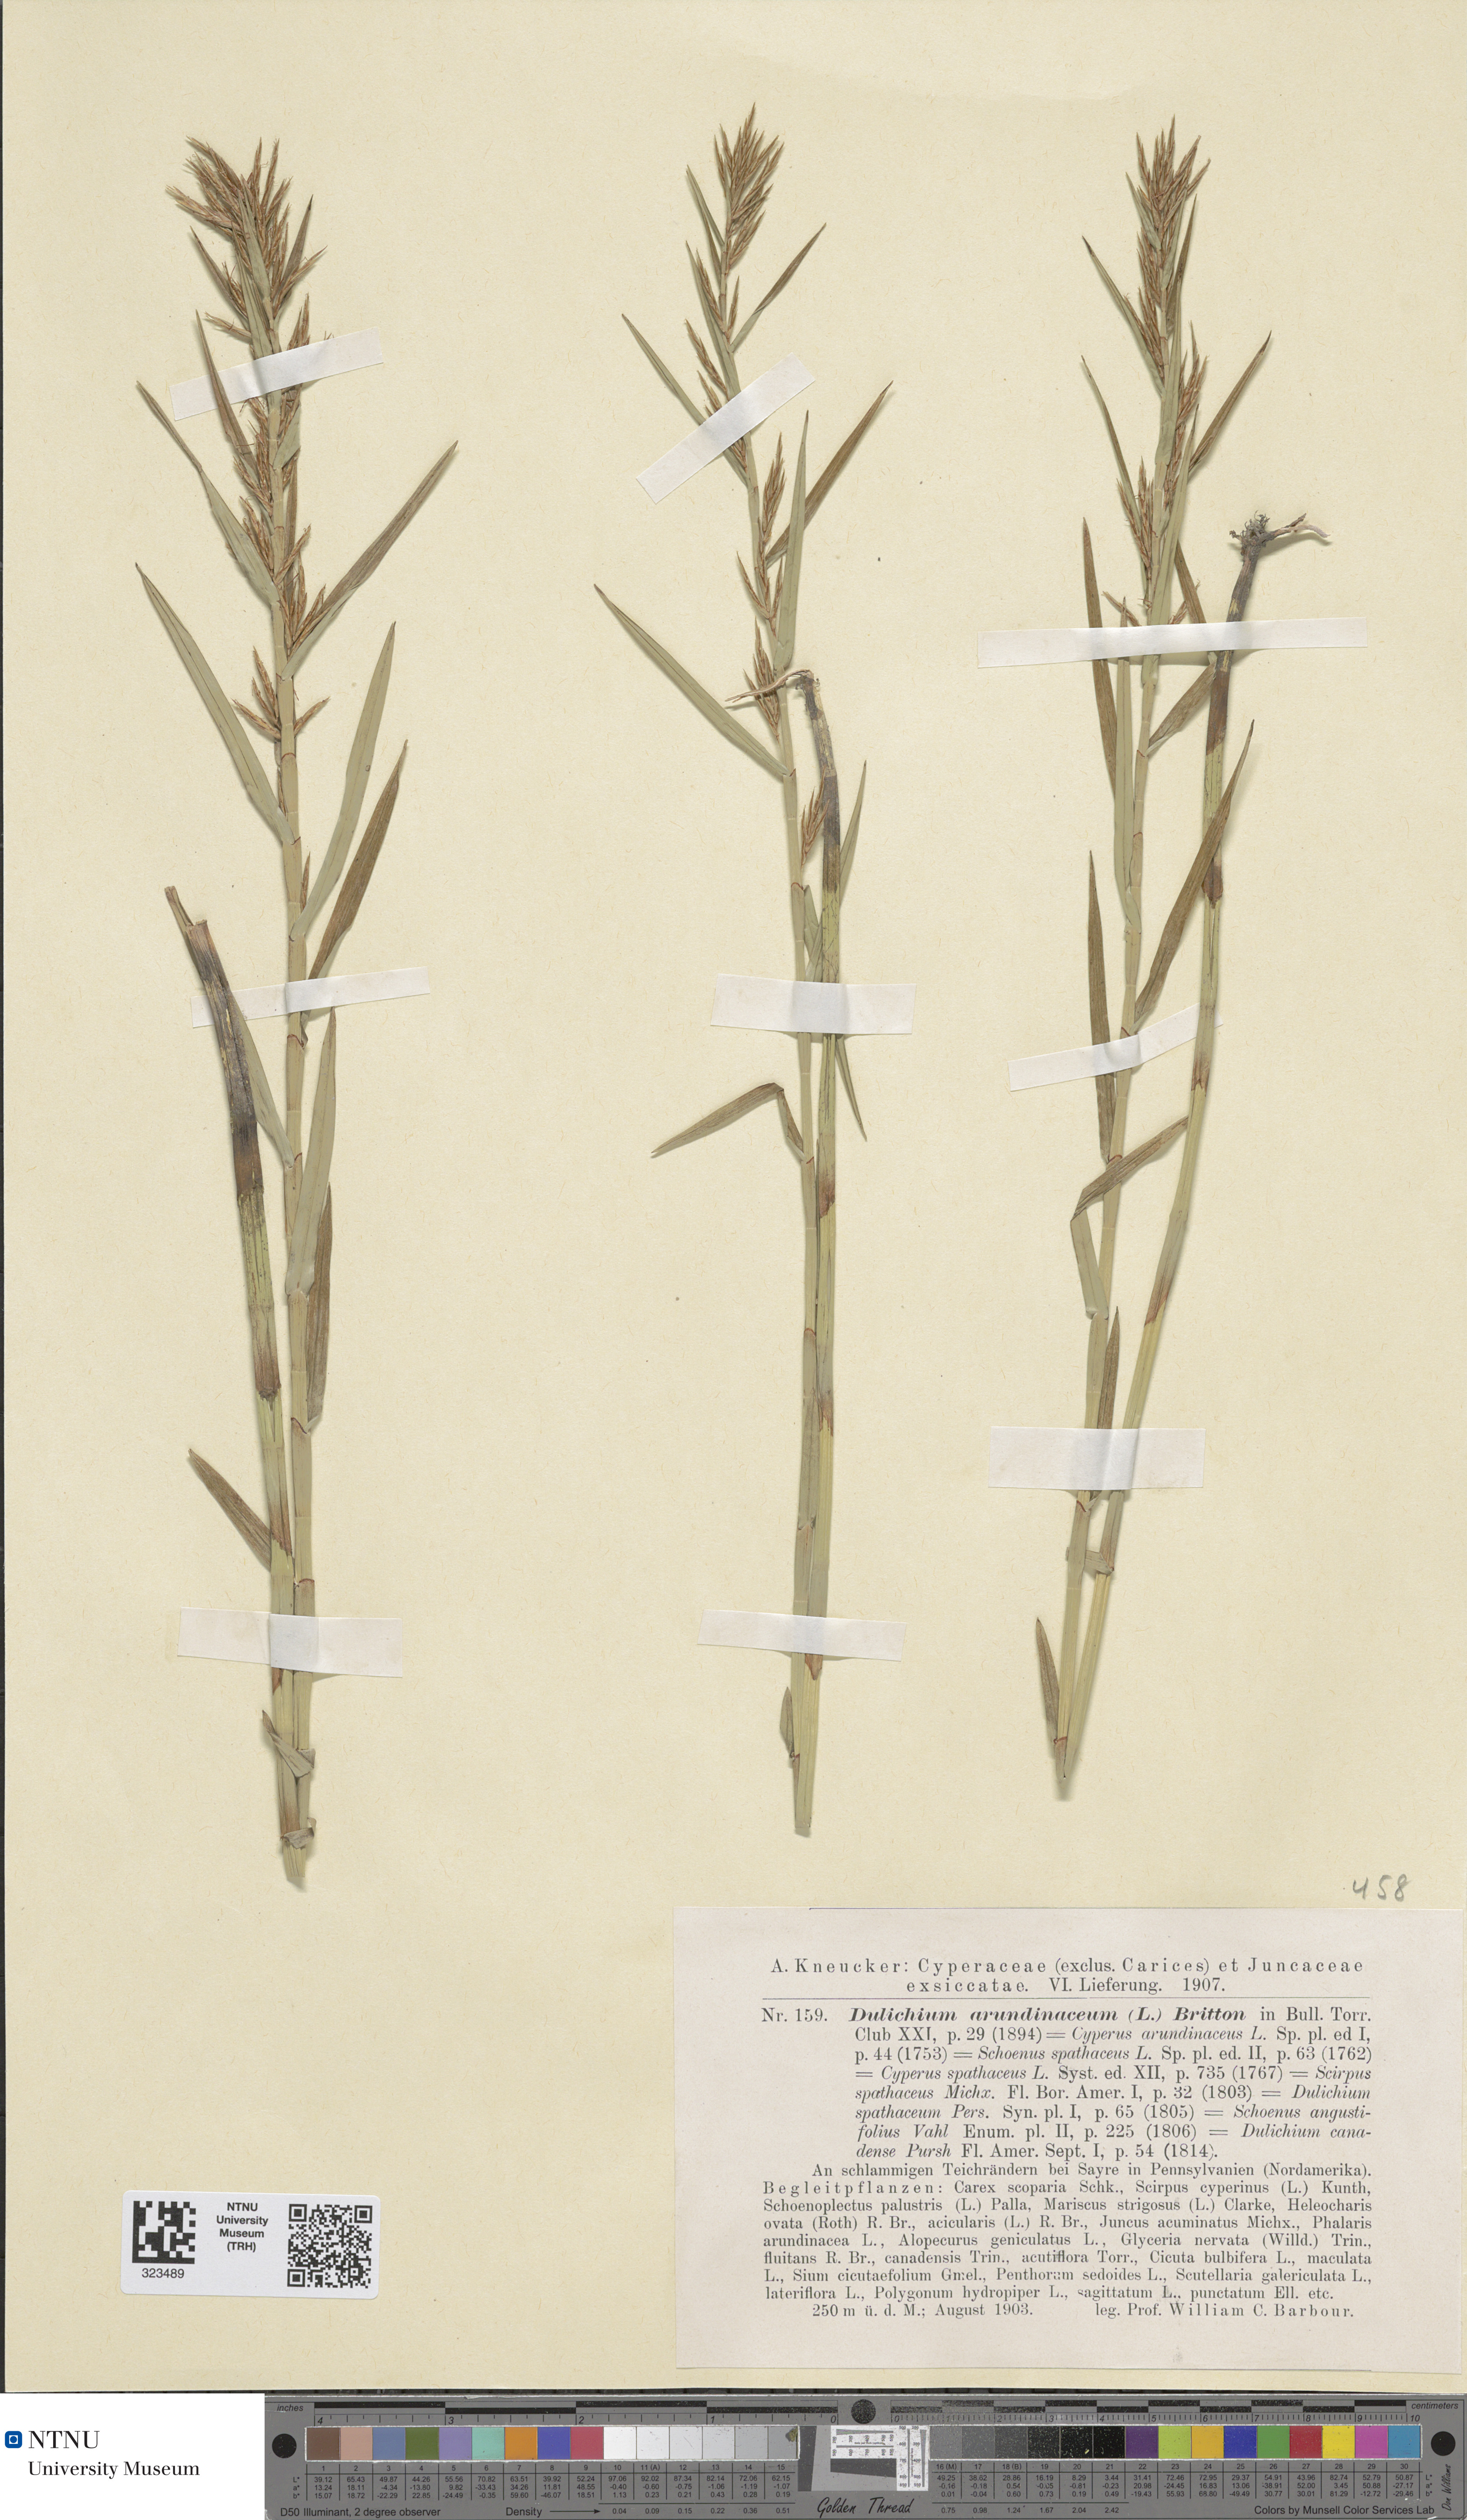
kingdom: Plantae
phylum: Tracheophyta
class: Liliopsida
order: Poales
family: Cyperaceae
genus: Dulichium
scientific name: Dulichium arundinaceum
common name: Three-way sedge
